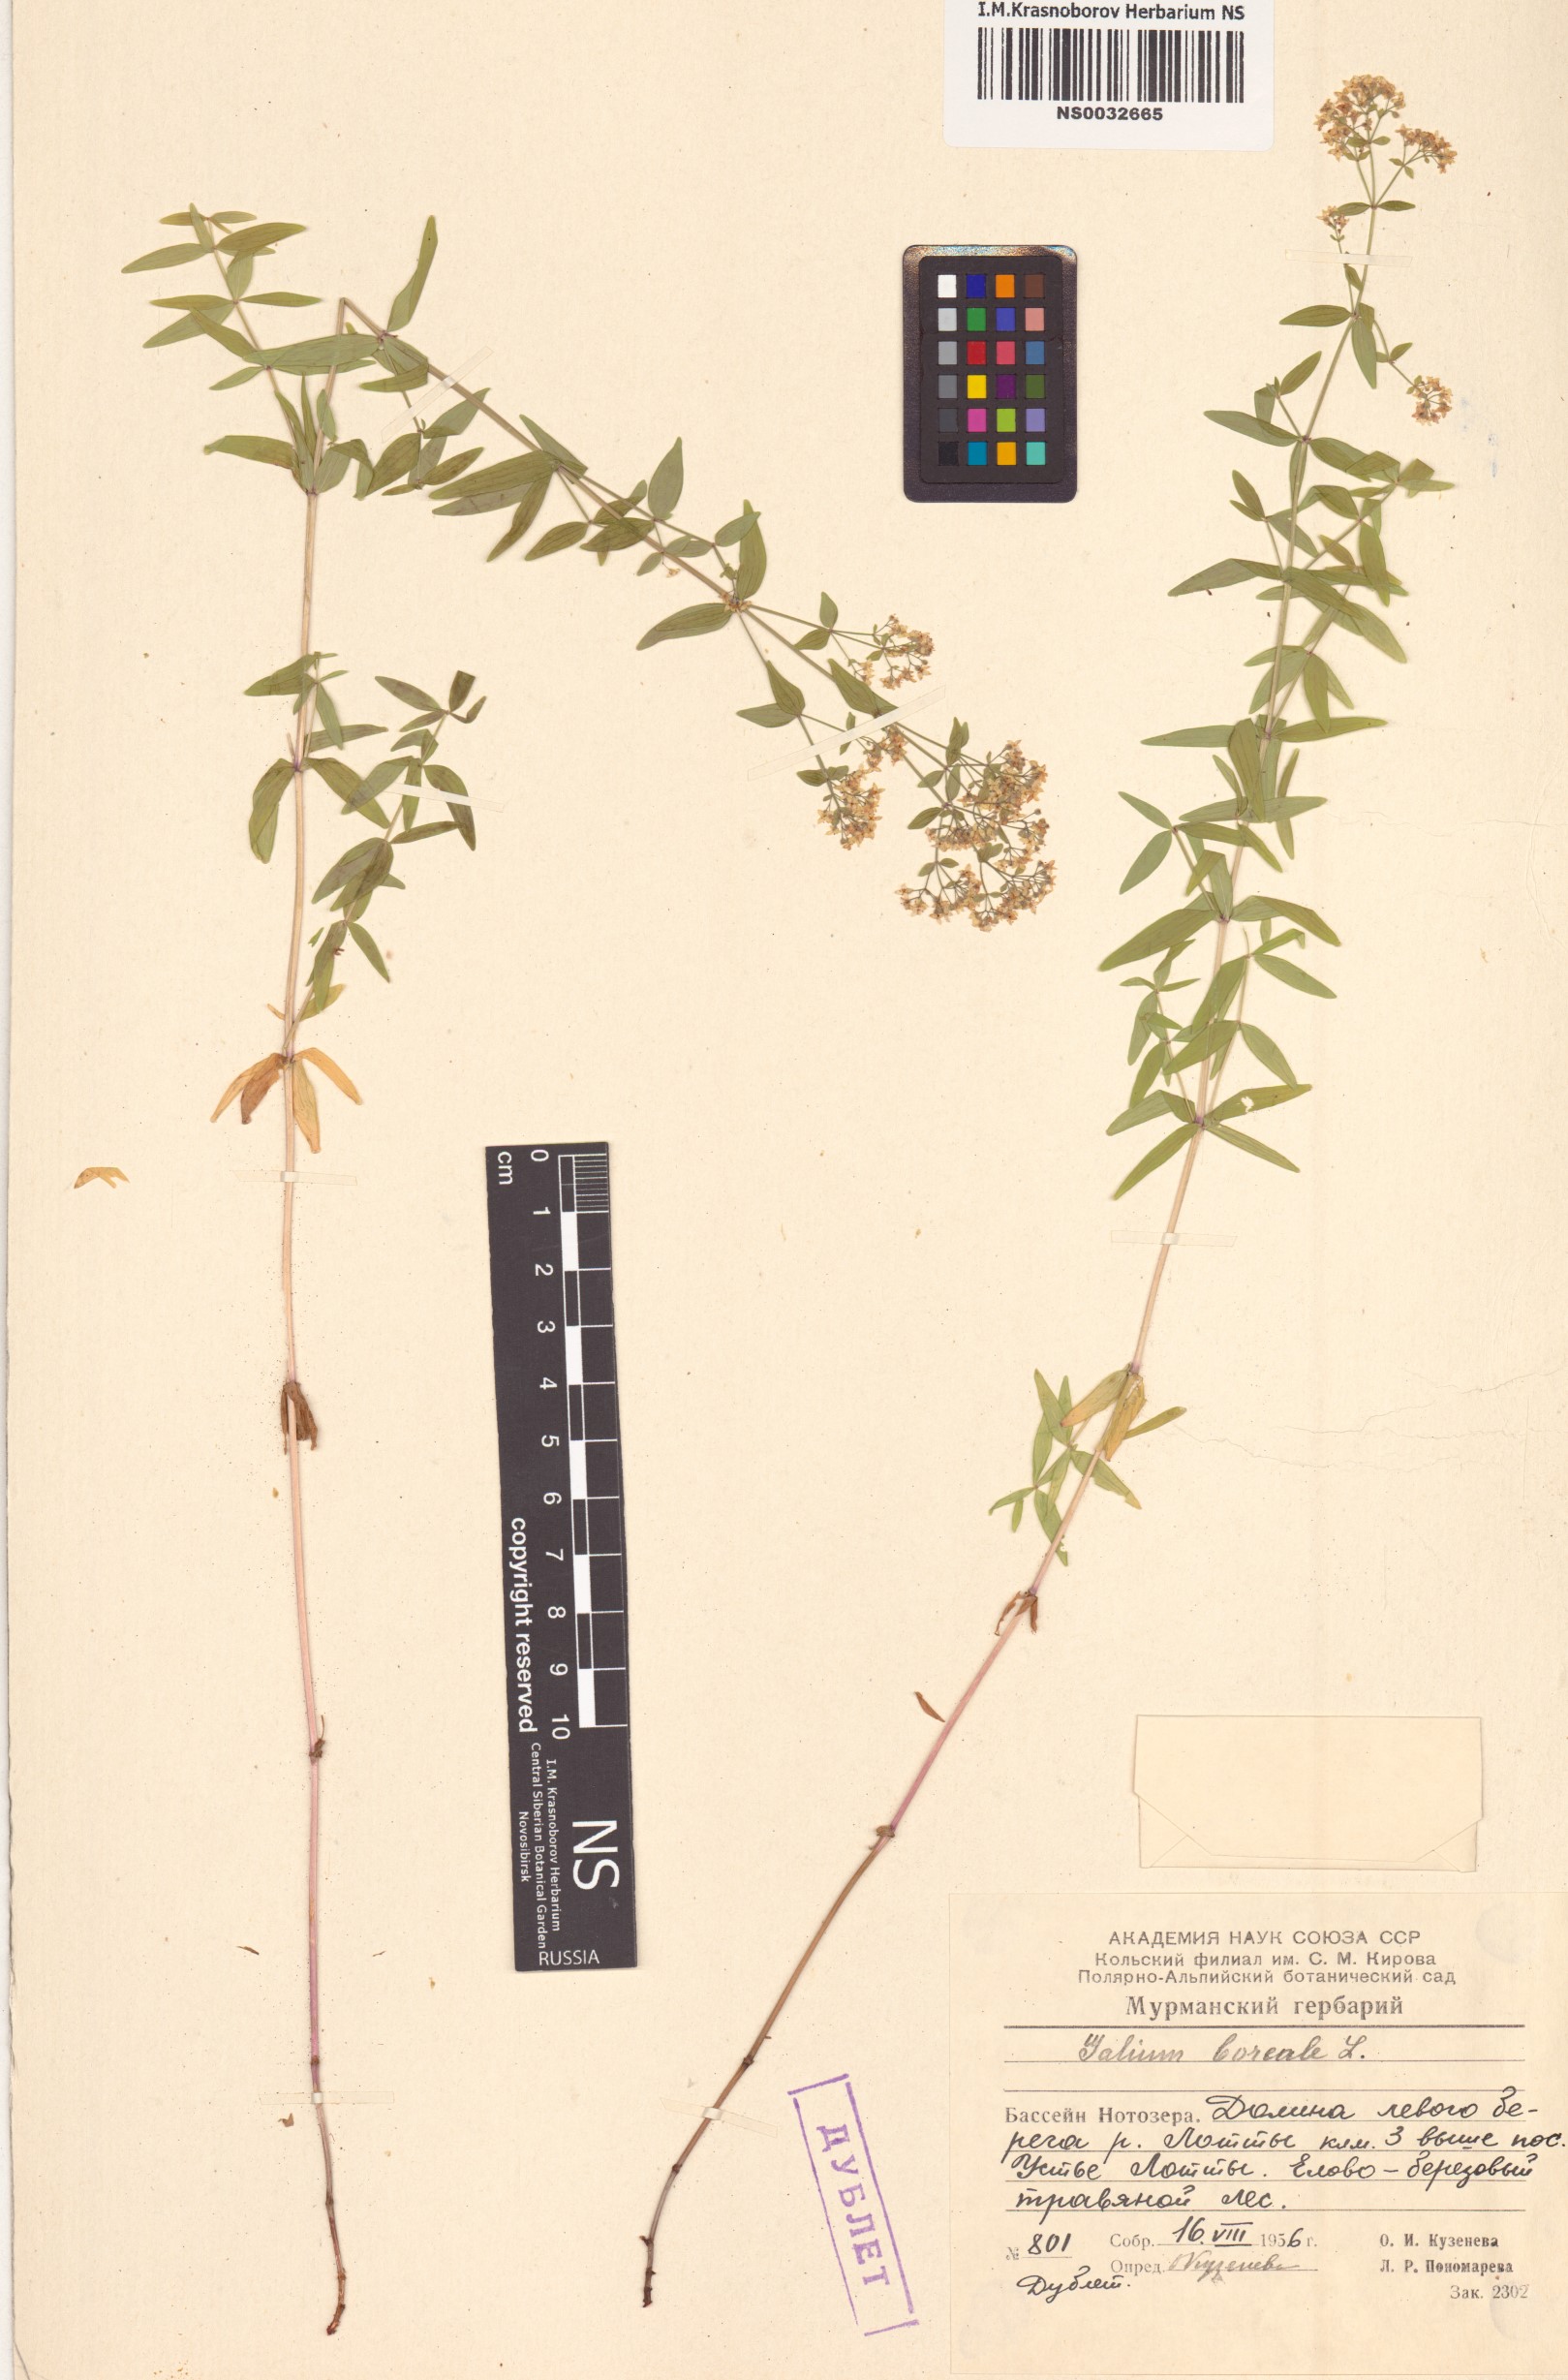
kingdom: Plantae
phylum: Tracheophyta
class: Magnoliopsida
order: Gentianales
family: Rubiaceae
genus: Galium
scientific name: Galium boreale
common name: Northern bedstraw
